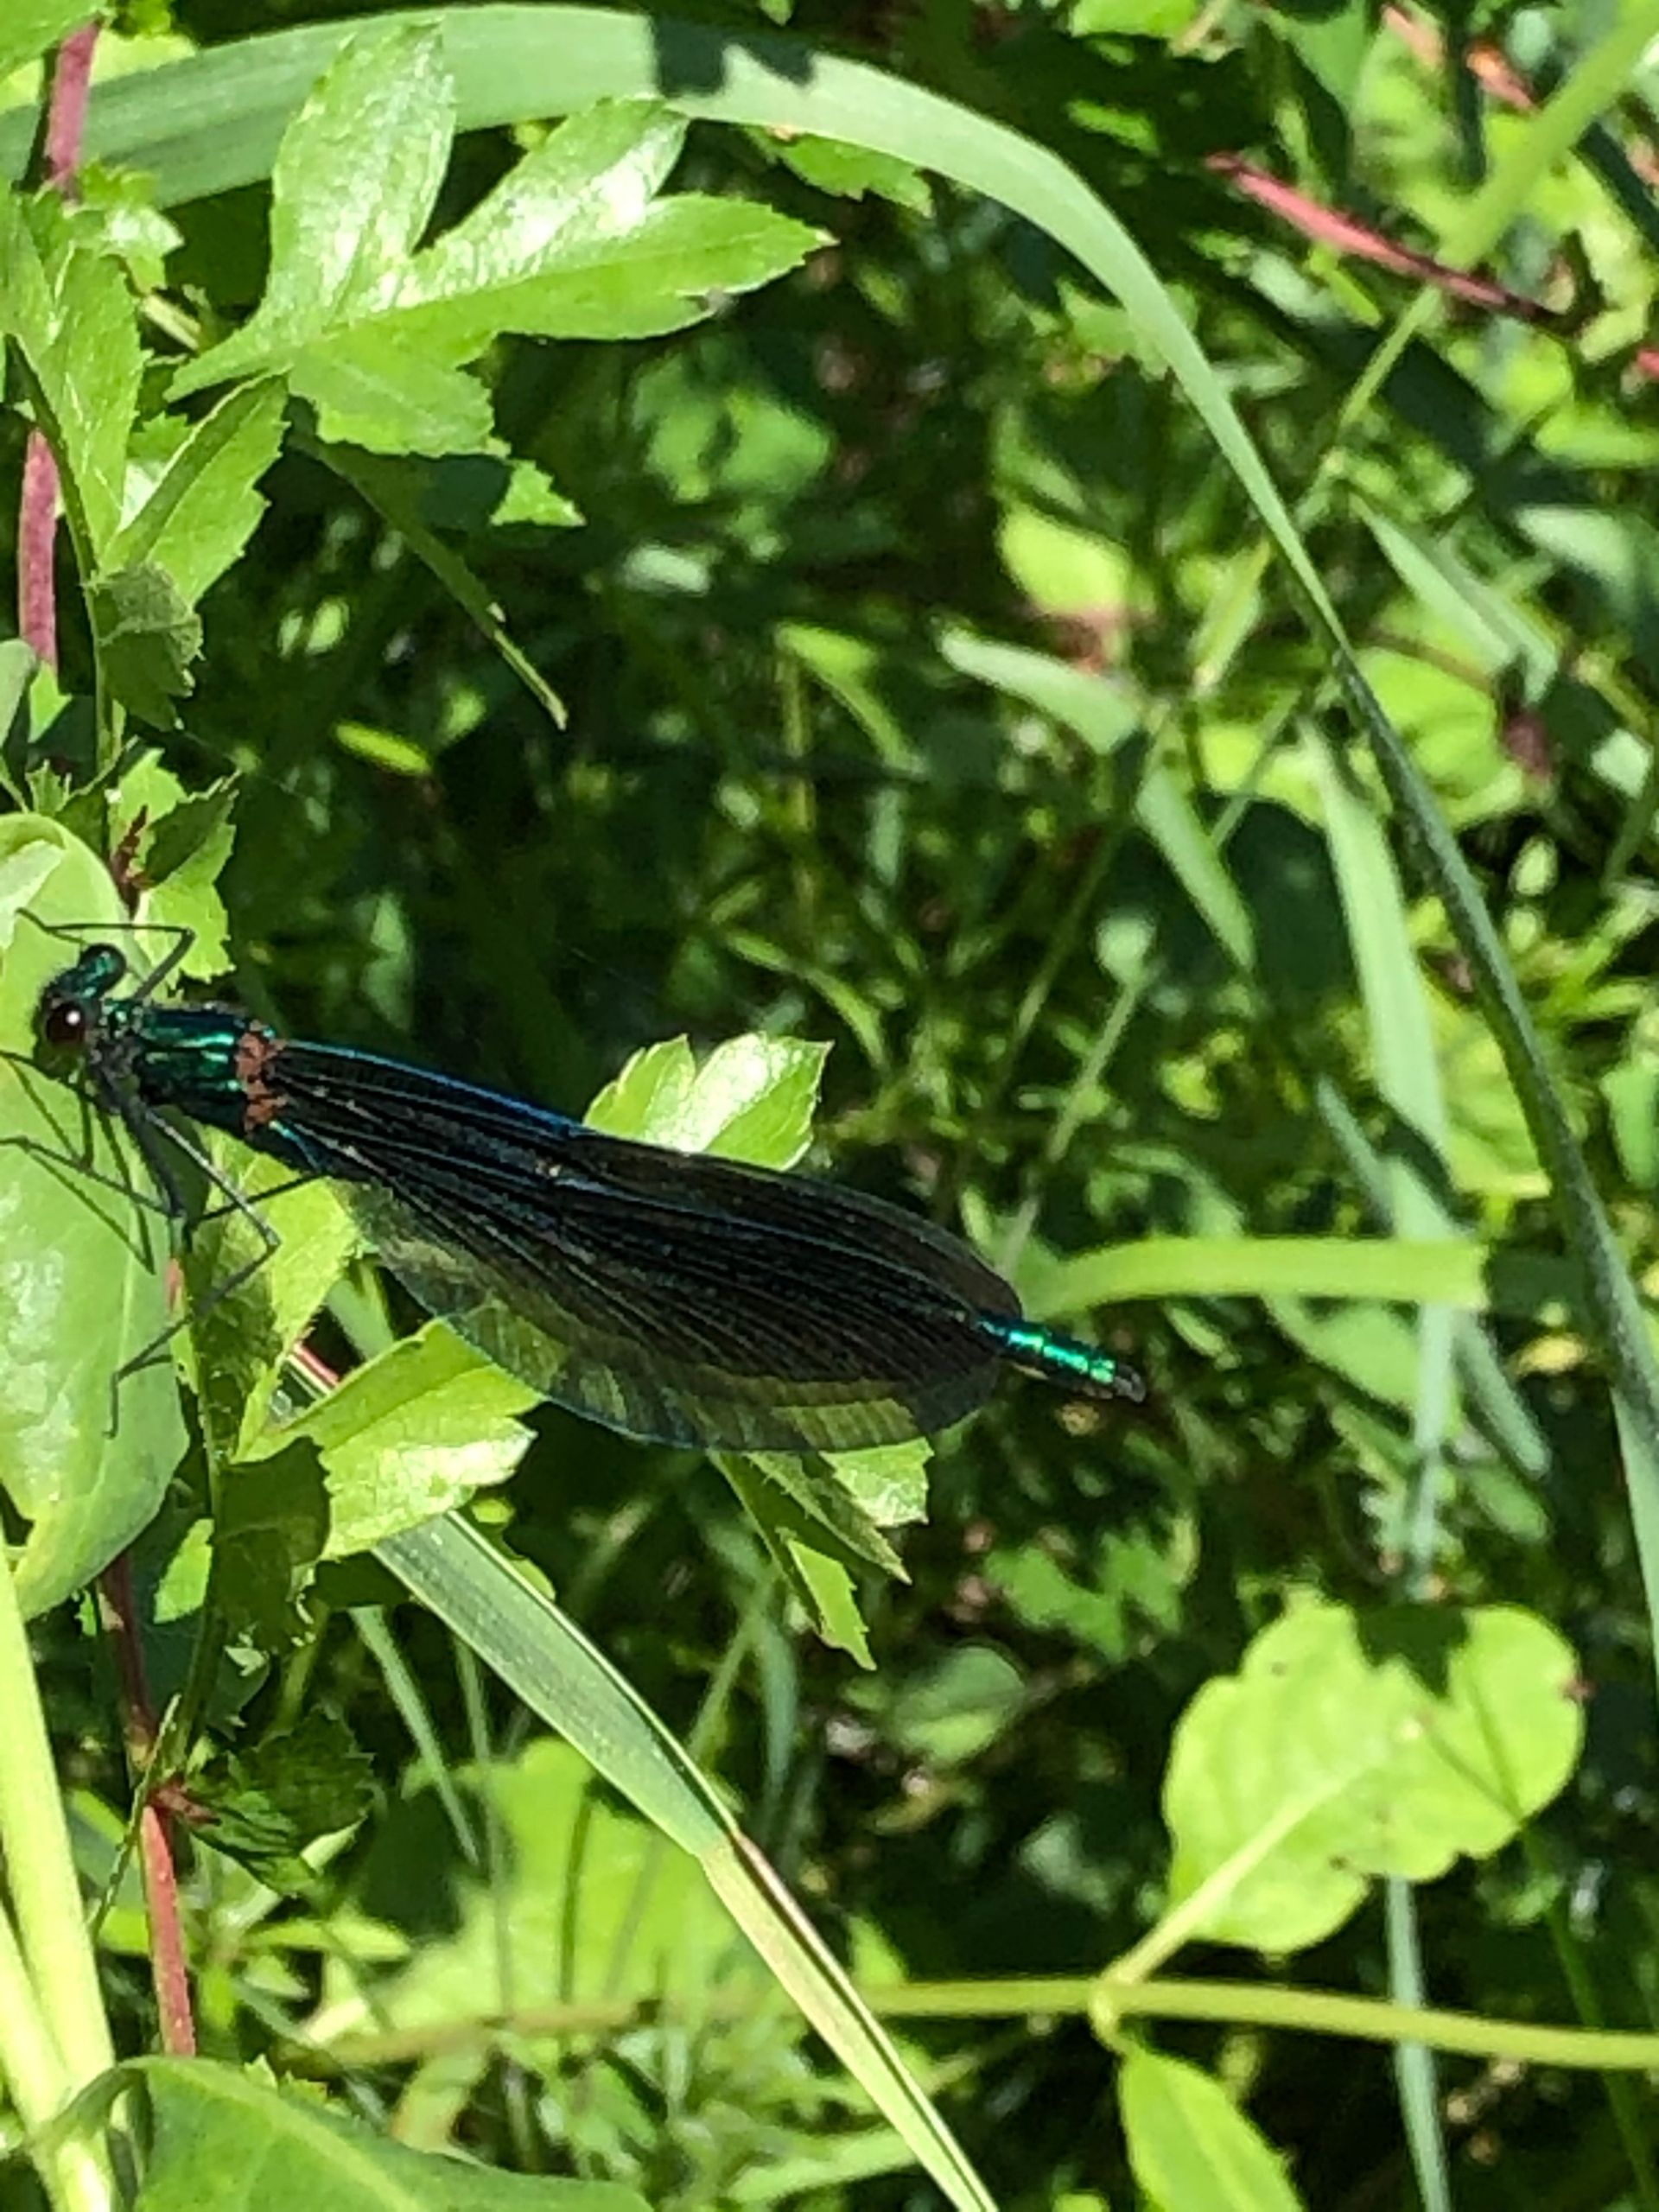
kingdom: Animalia
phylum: Arthropoda
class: Insecta
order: Odonata
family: Calopterygidae
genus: Calopteryx
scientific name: Calopteryx virgo
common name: Blåvinget pragtvandnymfe
